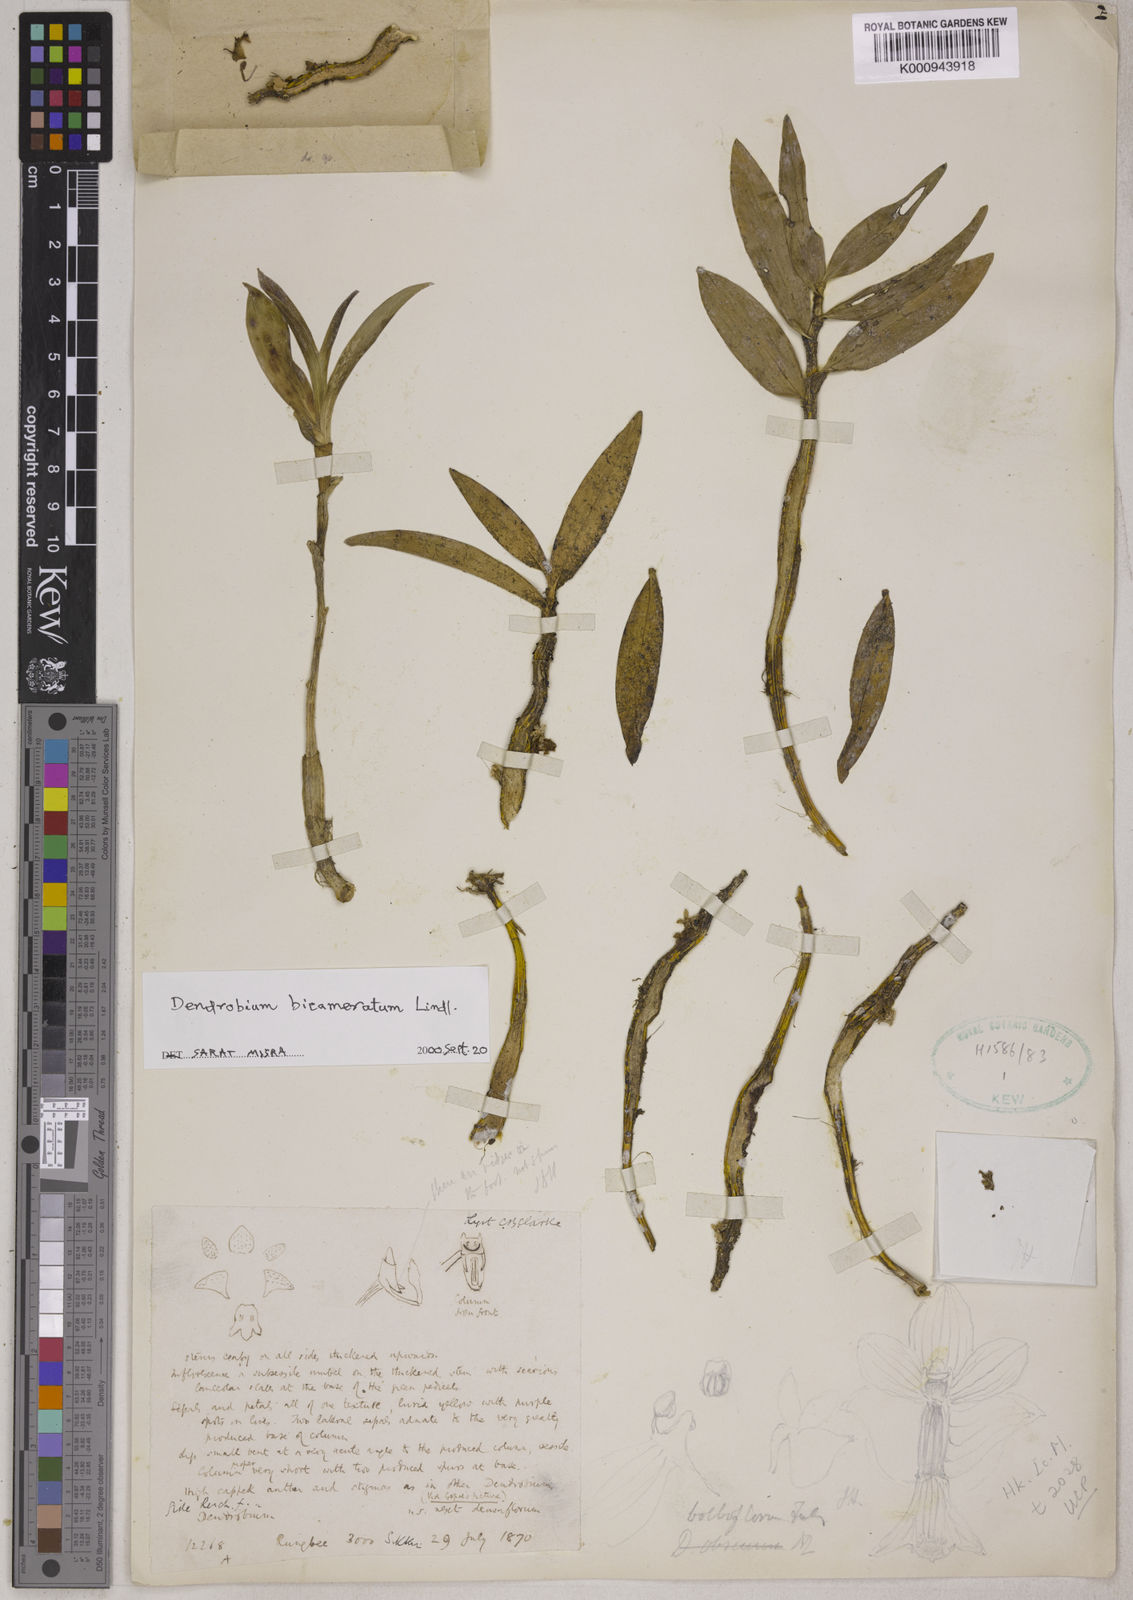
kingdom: Plantae
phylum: Tracheophyta
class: Liliopsida
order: Asparagales
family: Orchidaceae
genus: Dendrobium
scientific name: Dendrobium bicameratum
